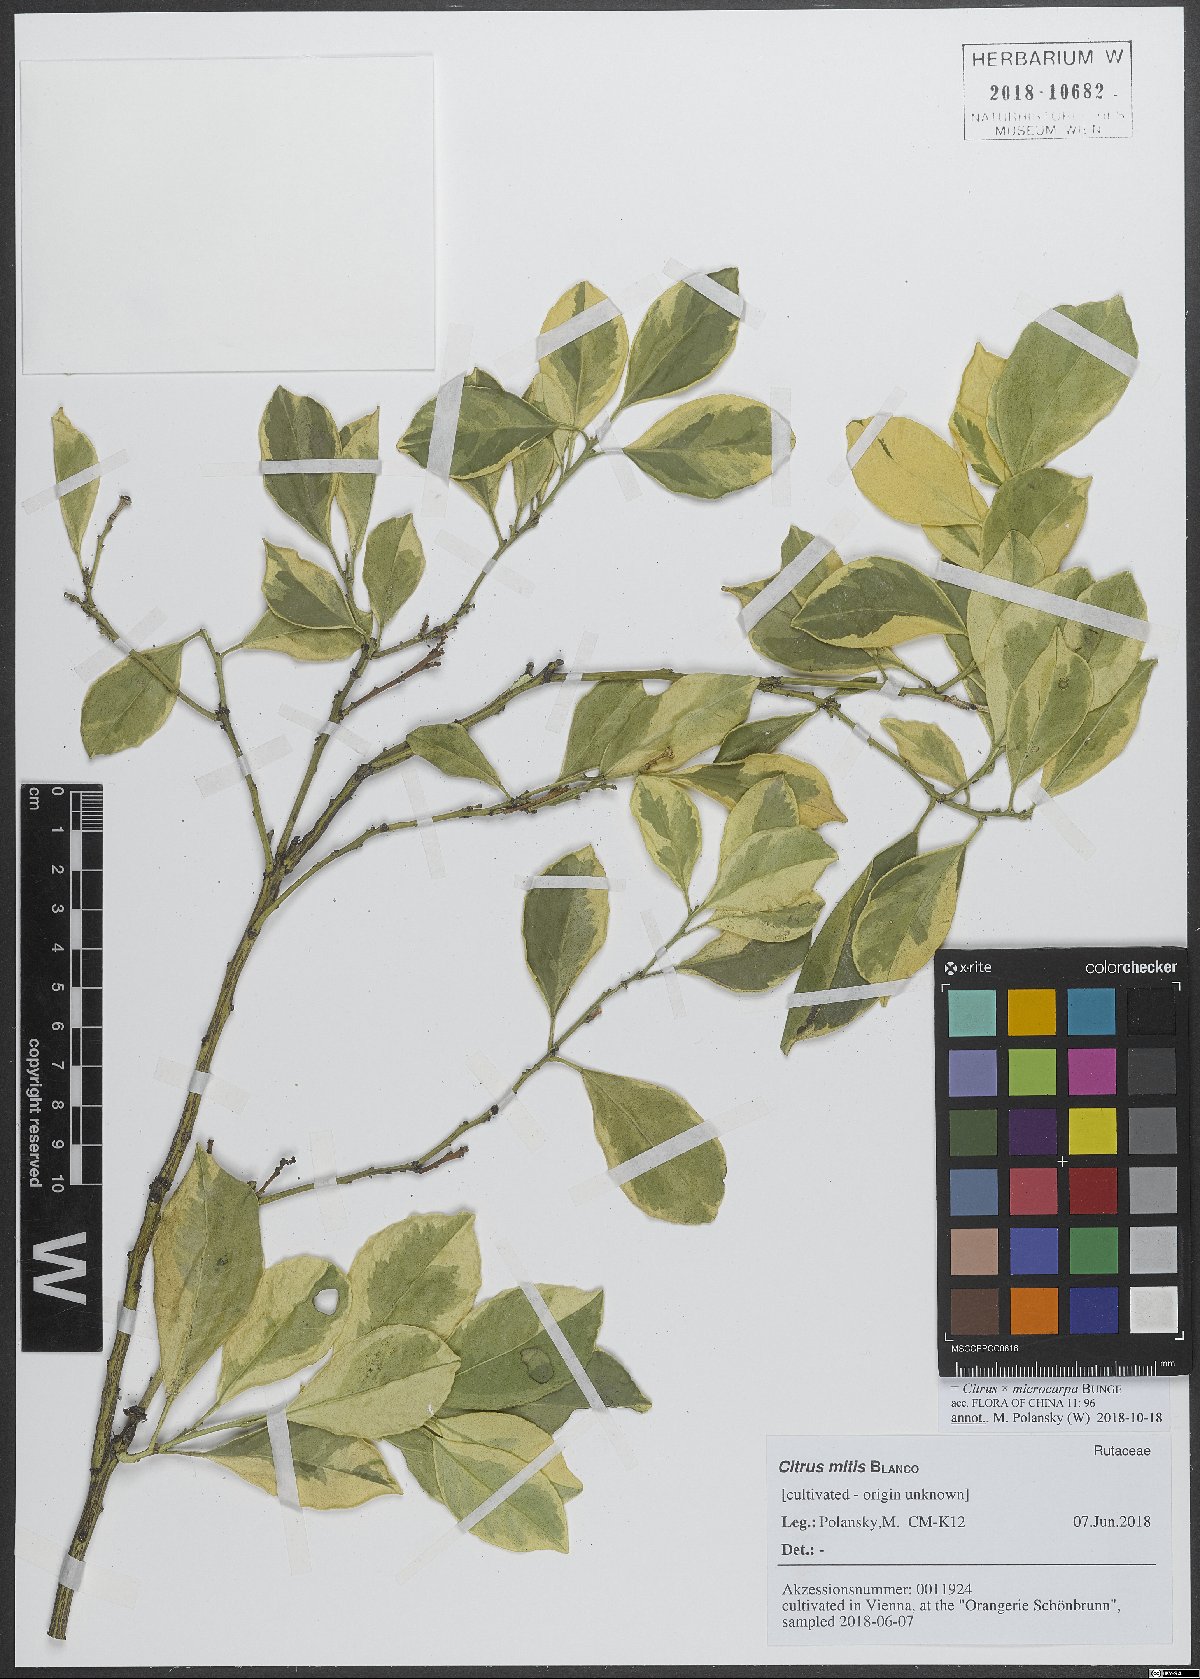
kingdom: Plantae
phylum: Tracheophyta
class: Magnoliopsida
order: Sapindales
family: Rutaceae
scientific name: Rutaceae
